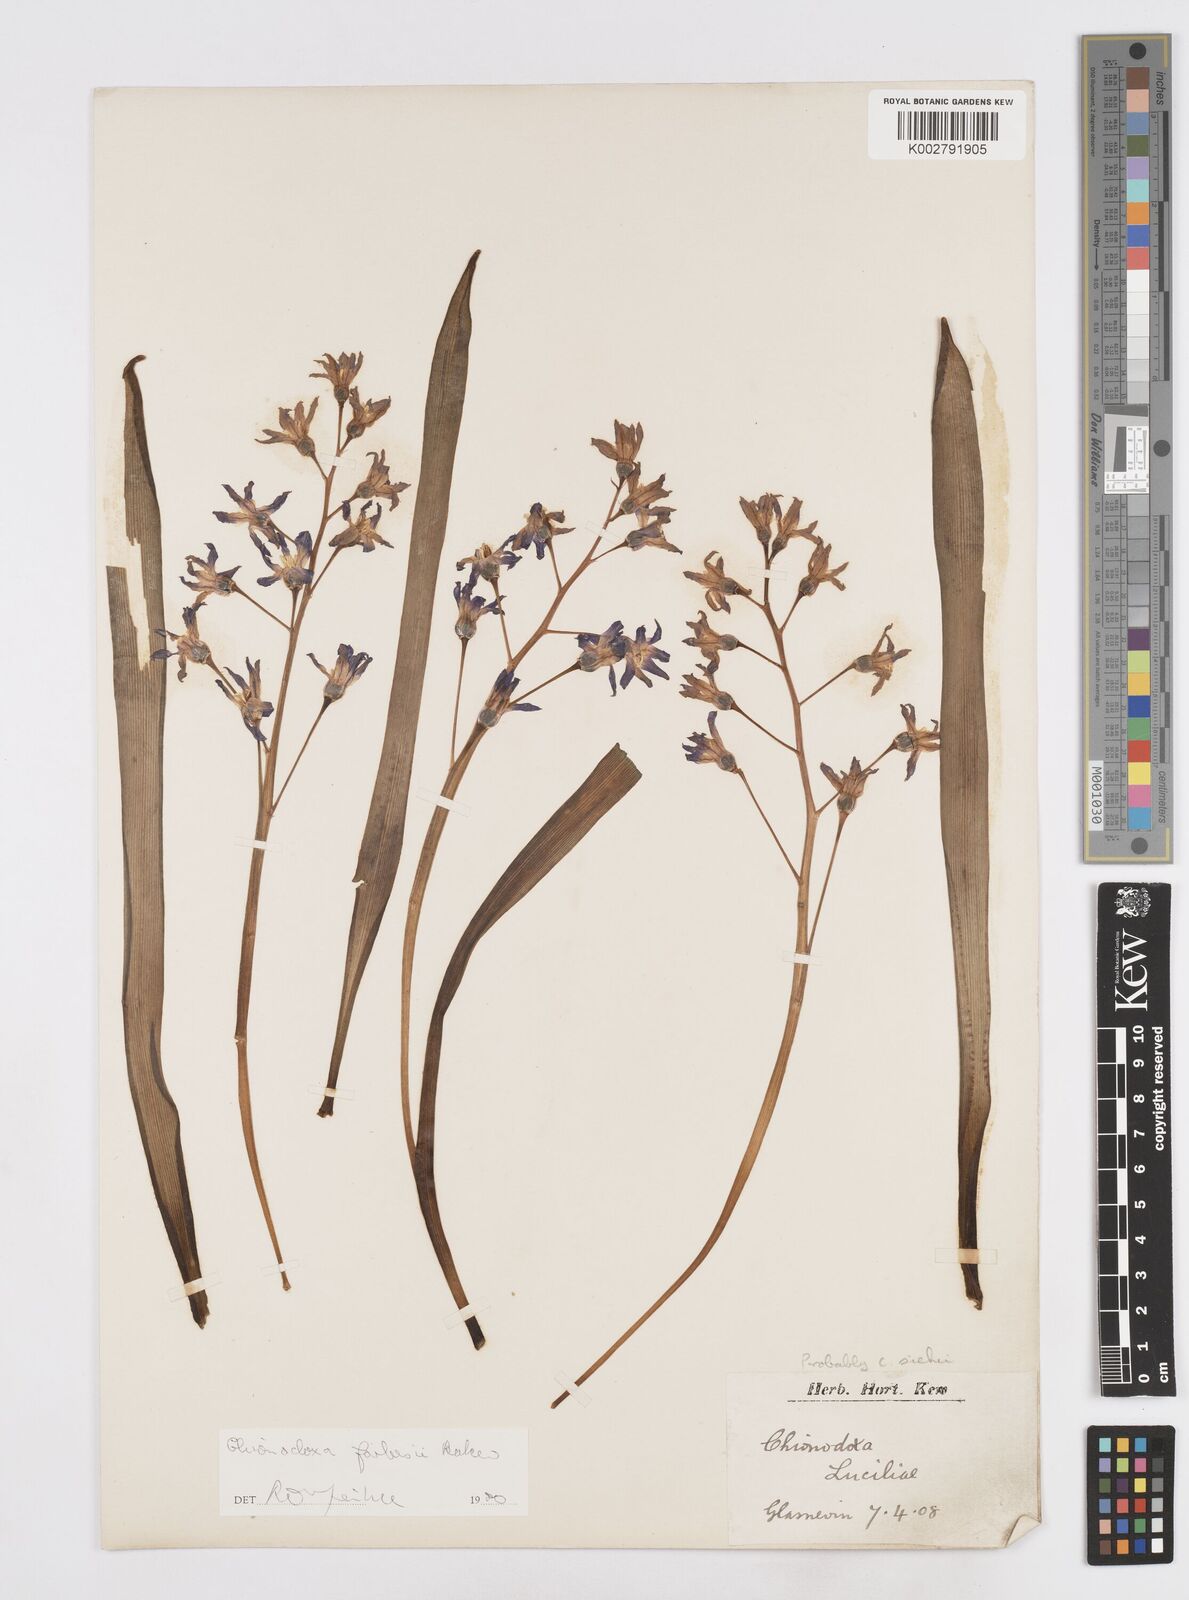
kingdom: Plantae
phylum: Tracheophyta
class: Liliopsida
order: Asparagales
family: Asparagaceae
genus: Scilla
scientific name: Scilla forbesii
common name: Glory-of-the-snow
